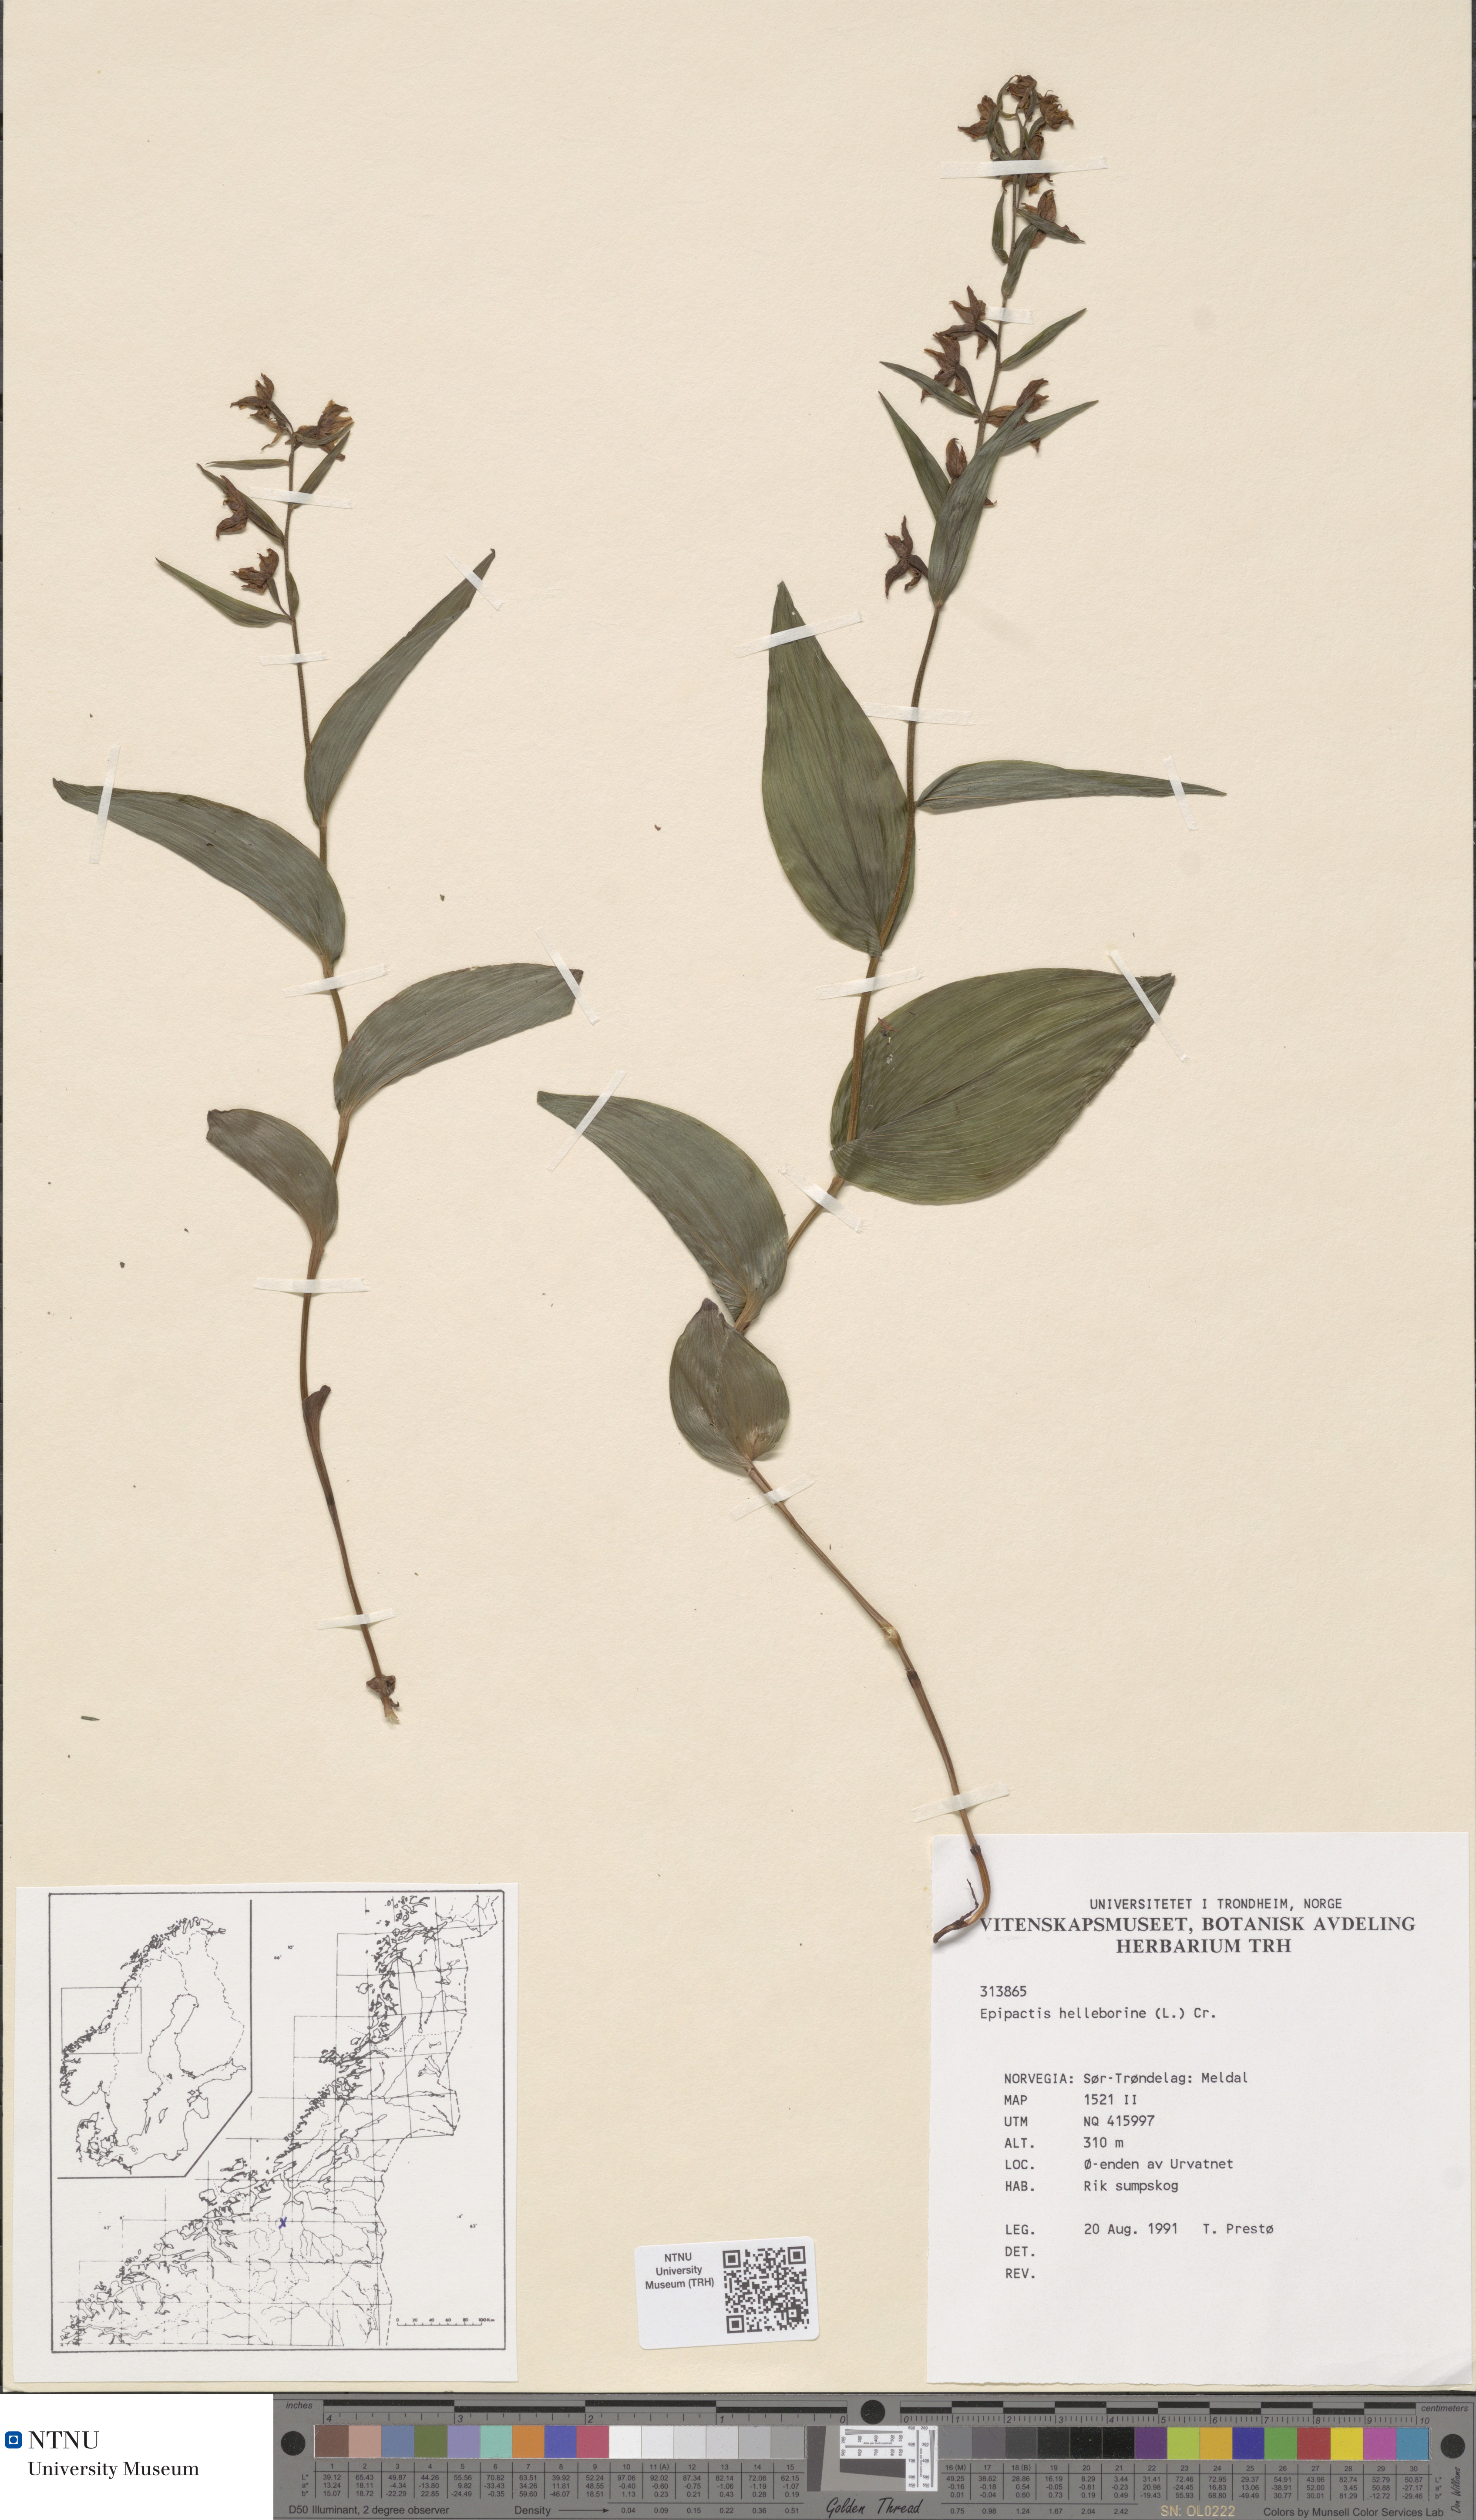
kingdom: Plantae
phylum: Tracheophyta
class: Liliopsida
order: Asparagales
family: Orchidaceae
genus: Epipactis
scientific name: Epipactis helleborine
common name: Broad-leaved helleborine
